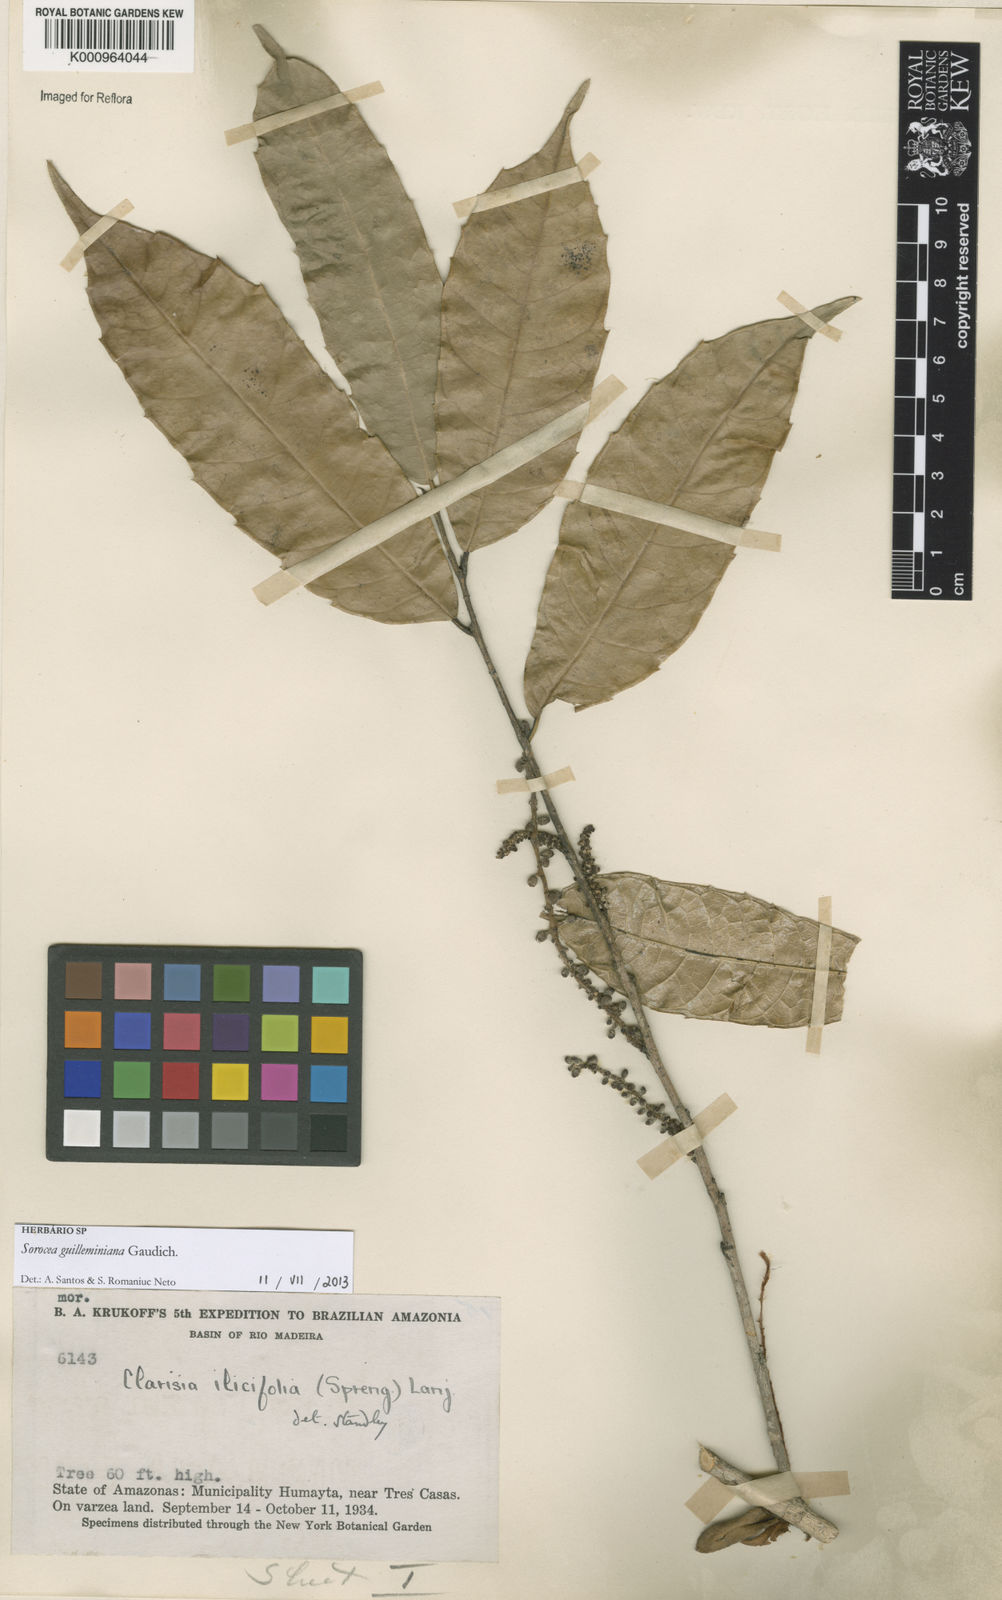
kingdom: Plantae
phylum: Tracheophyta
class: Magnoliopsida
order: Rosales
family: Moraceae
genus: Sorocea
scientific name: Sorocea guilleminiana
